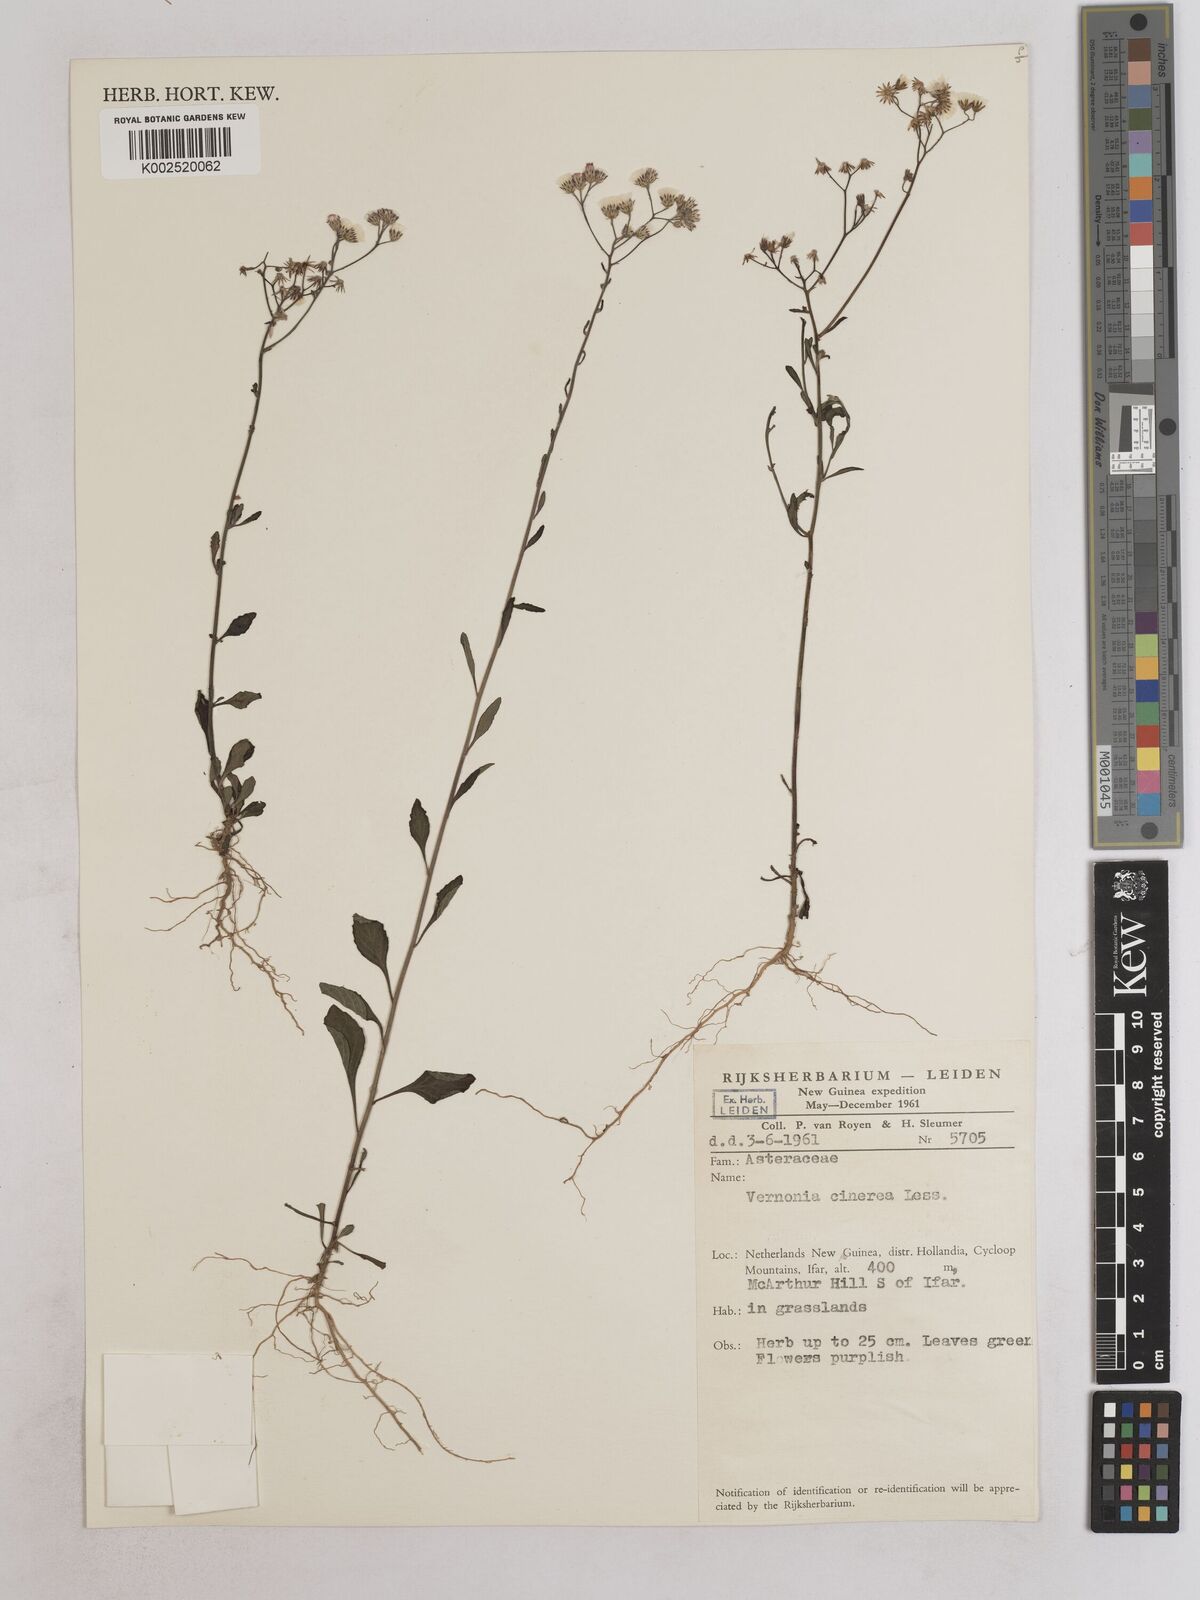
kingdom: Plantae
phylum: Tracheophyta
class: Magnoliopsida
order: Asterales
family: Asteraceae
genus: Cyanthillium
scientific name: Cyanthillium cinereum
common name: Little ironweed
